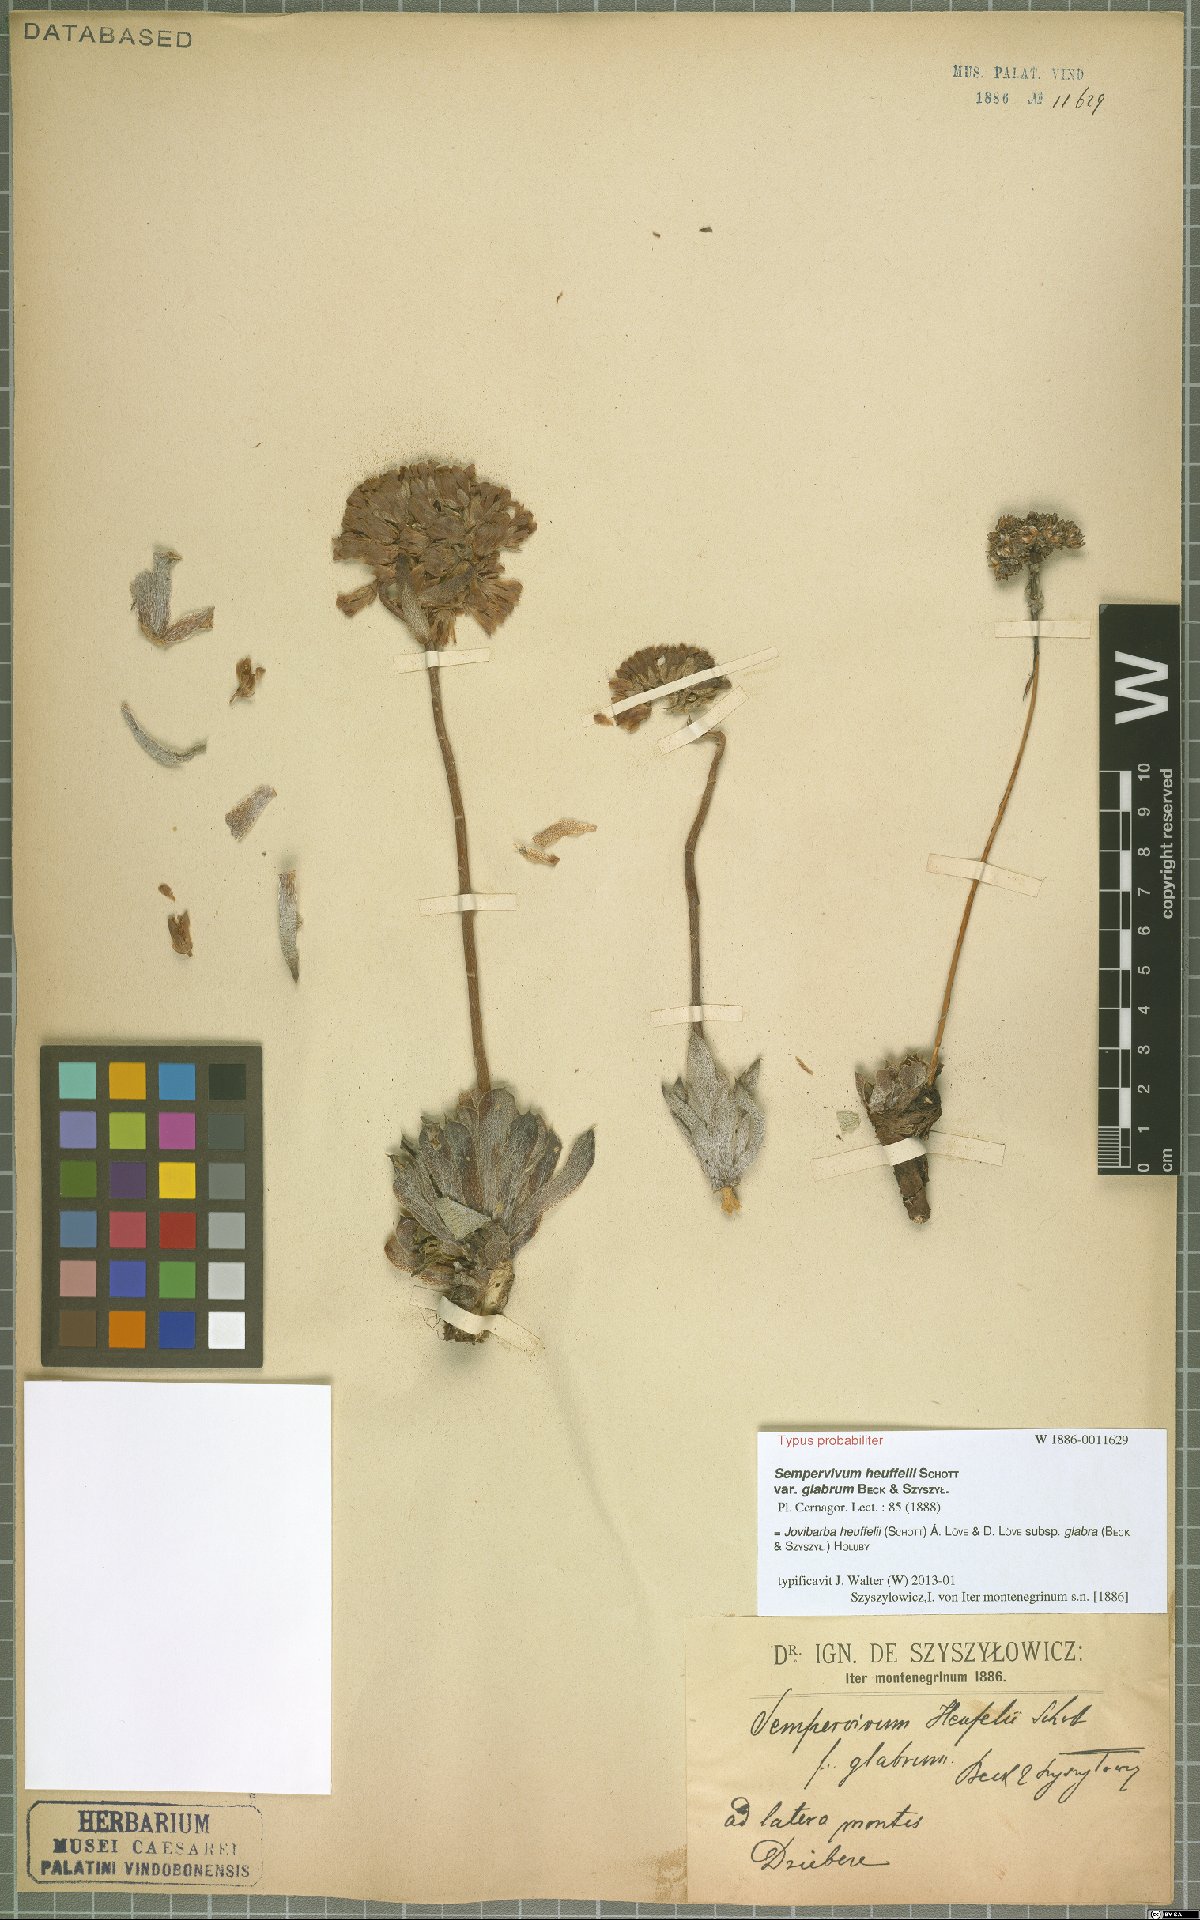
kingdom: Plantae
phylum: Tracheophyta
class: Magnoliopsida
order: Saxifragales
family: Crassulaceae
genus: Sempervivum
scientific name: Sempervivum heuffelii
